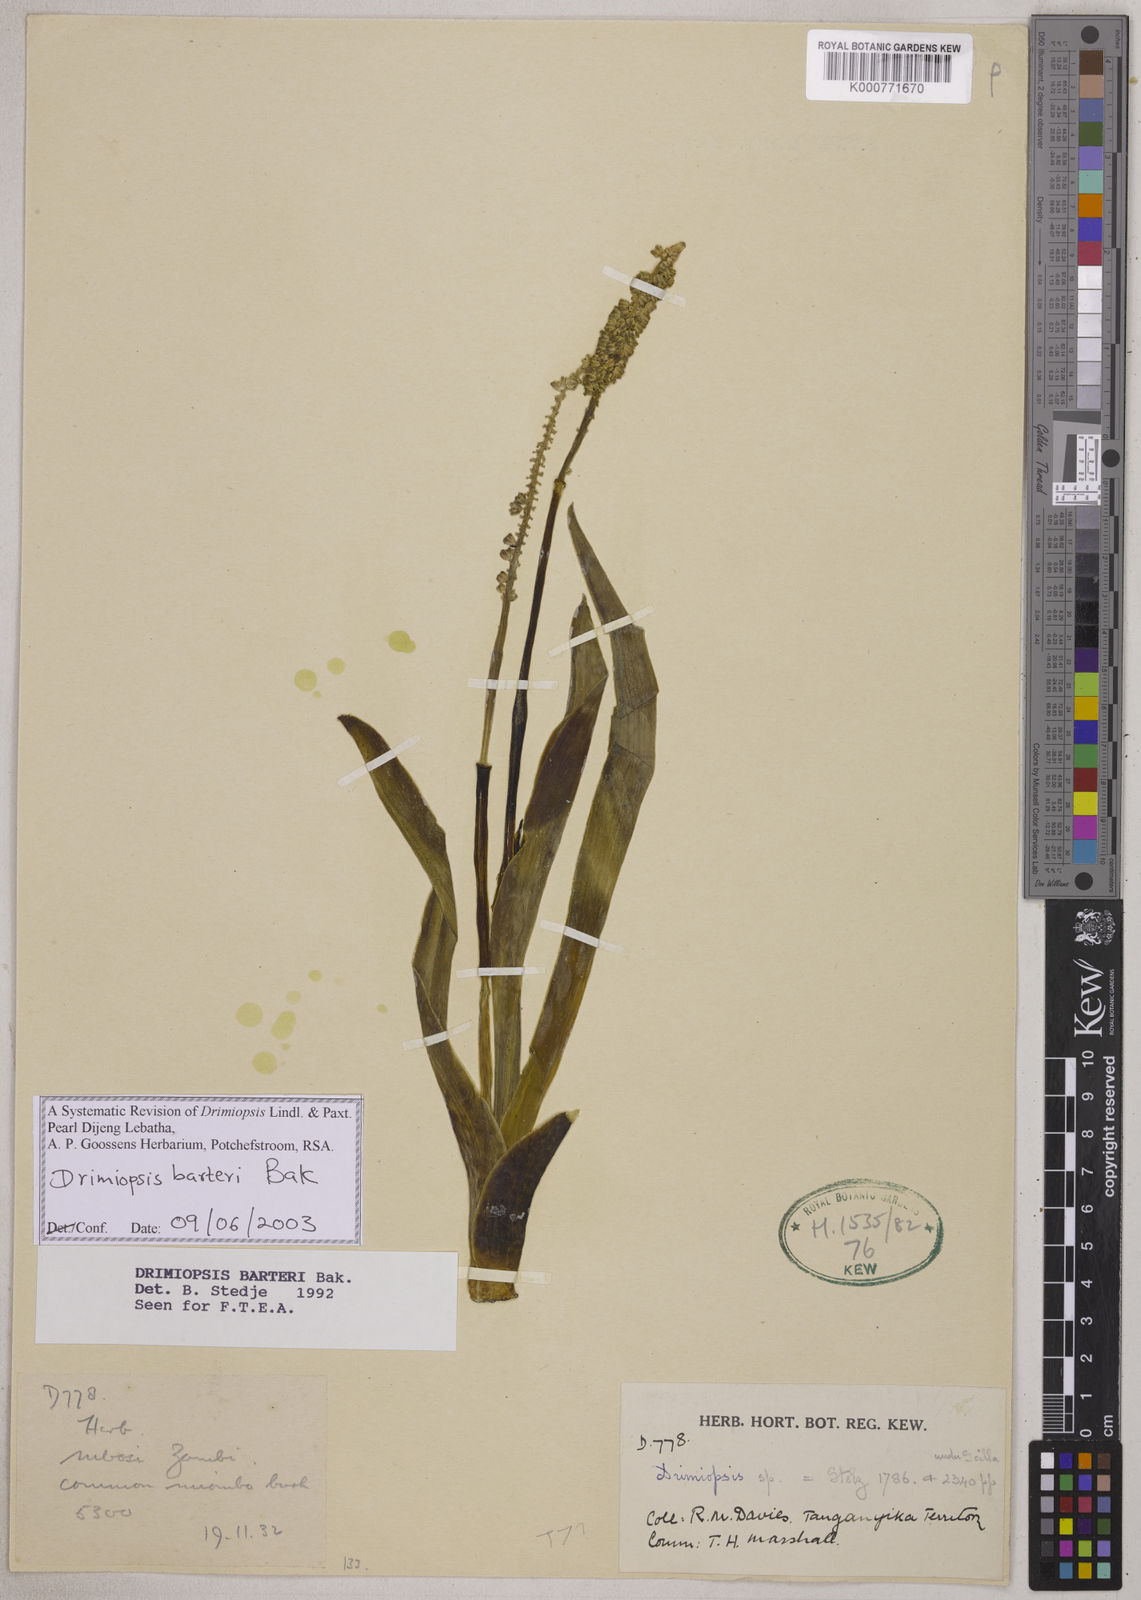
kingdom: Plantae
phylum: Tracheophyta
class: Liliopsida
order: Asparagales
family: Asparagaceae
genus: Drimiopsis
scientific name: Drimiopsis barteri
